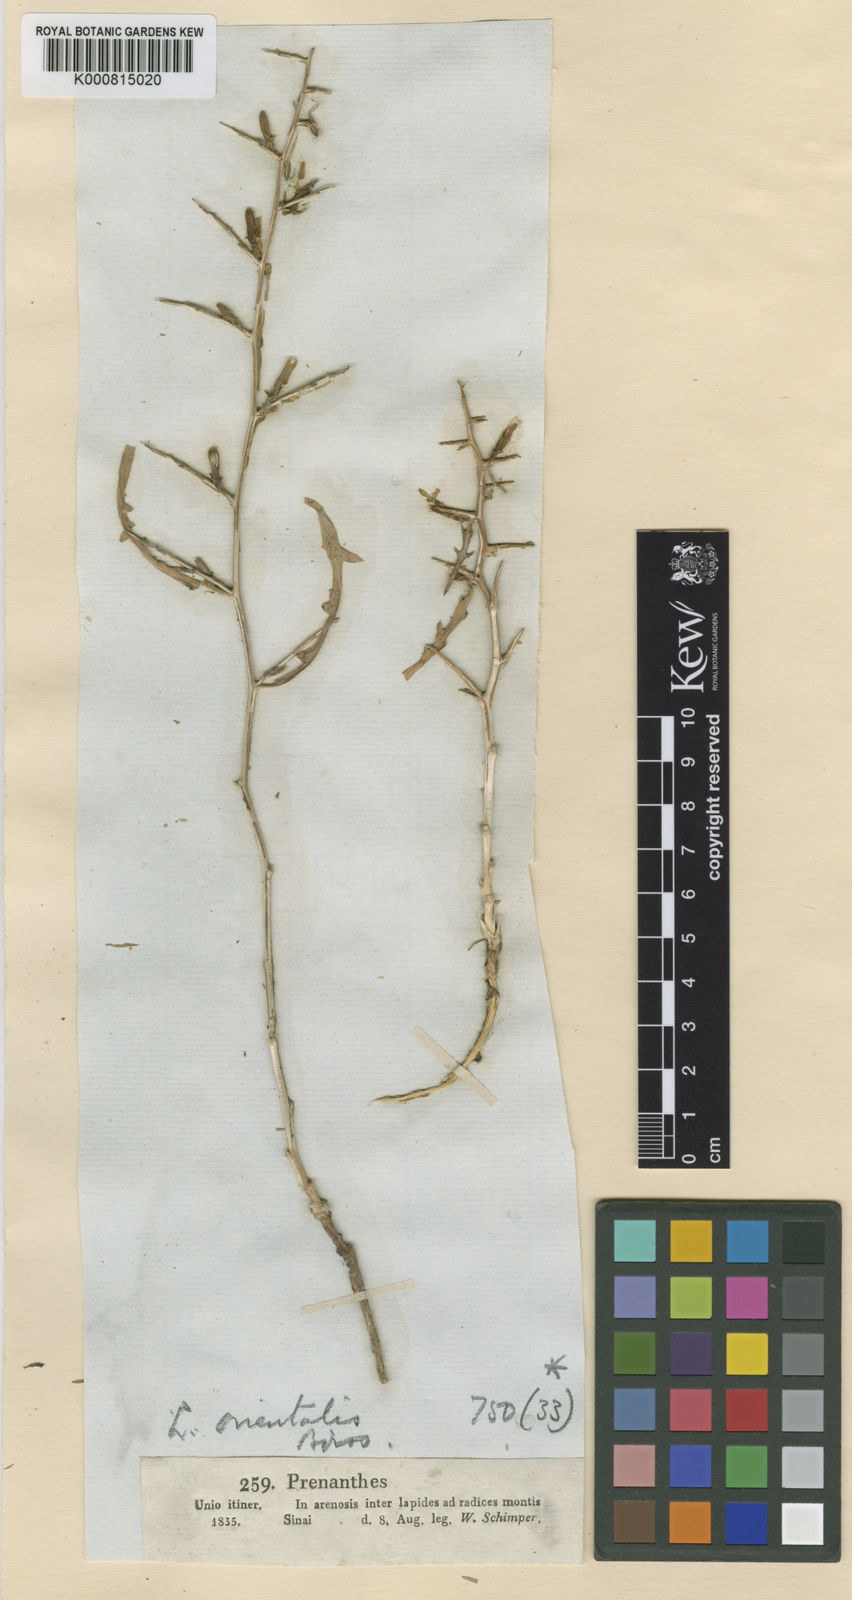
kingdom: Plantae
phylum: Tracheophyta
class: Magnoliopsida
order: Asterales
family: Asteraceae
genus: Lactuca
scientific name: Lactuca orientalis
